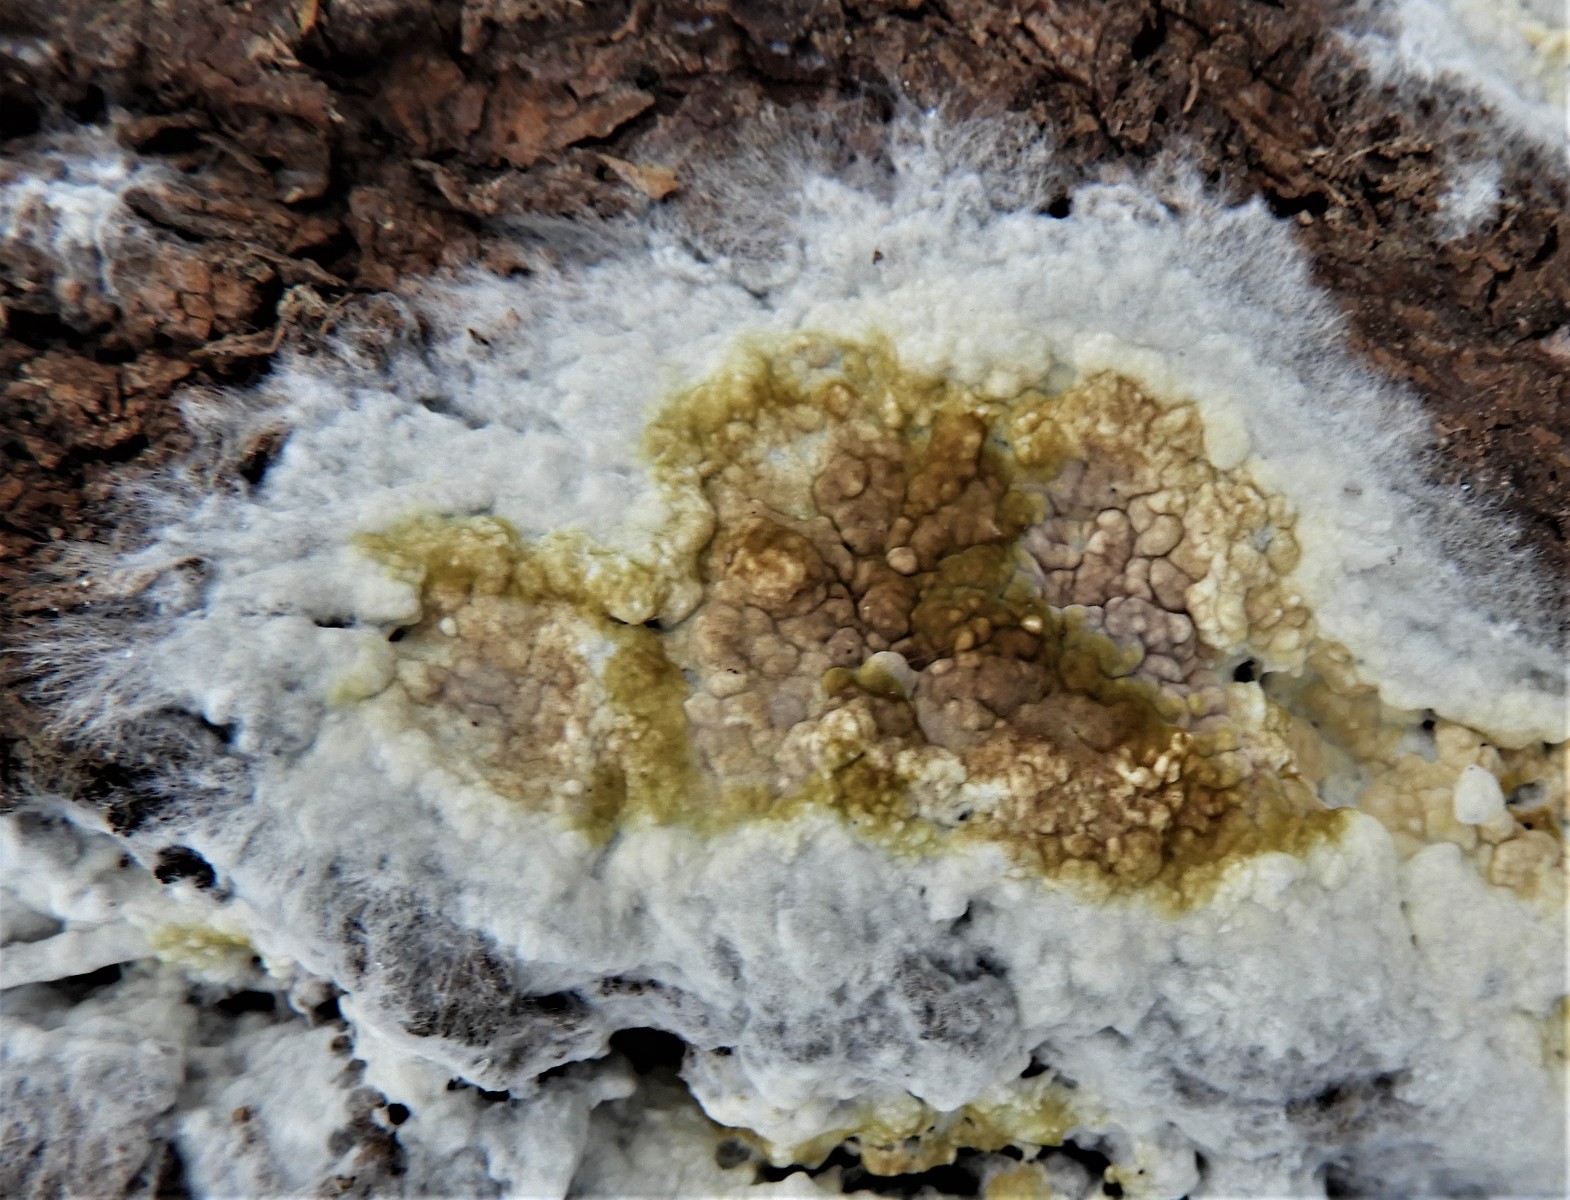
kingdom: Fungi
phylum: Basidiomycota
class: Agaricomycetes
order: Boletales
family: Coniophoraceae
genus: Coniophora
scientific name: Coniophora puteana
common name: gul tømmersvamp
